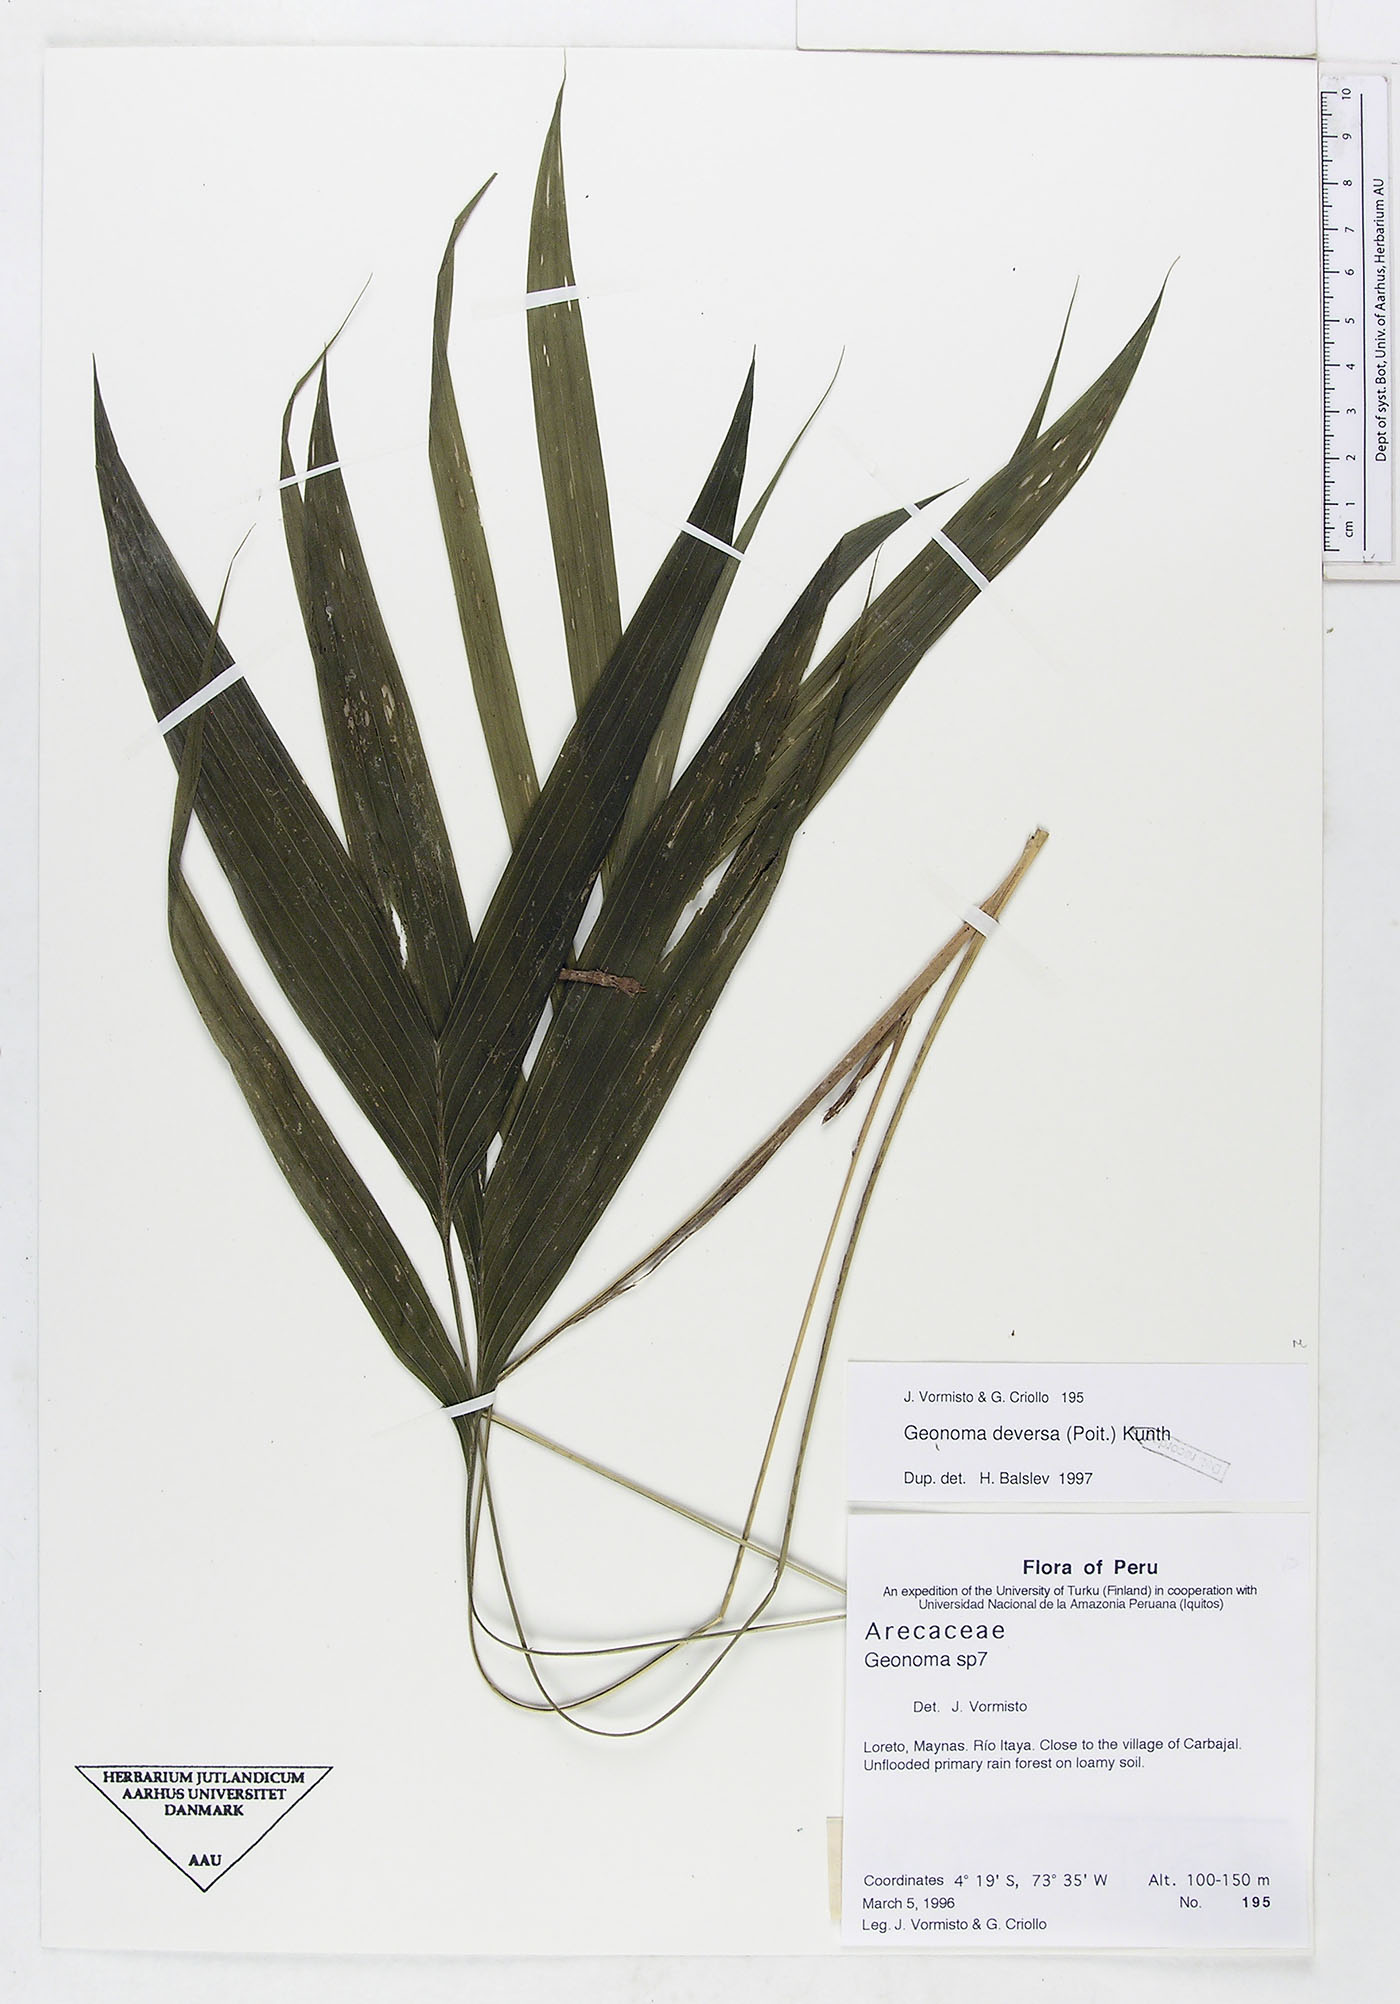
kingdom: Plantae
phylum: Tracheophyta
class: Liliopsida
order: Arecales
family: Arecaceae
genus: Geonoma
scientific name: Geonoma deversa
